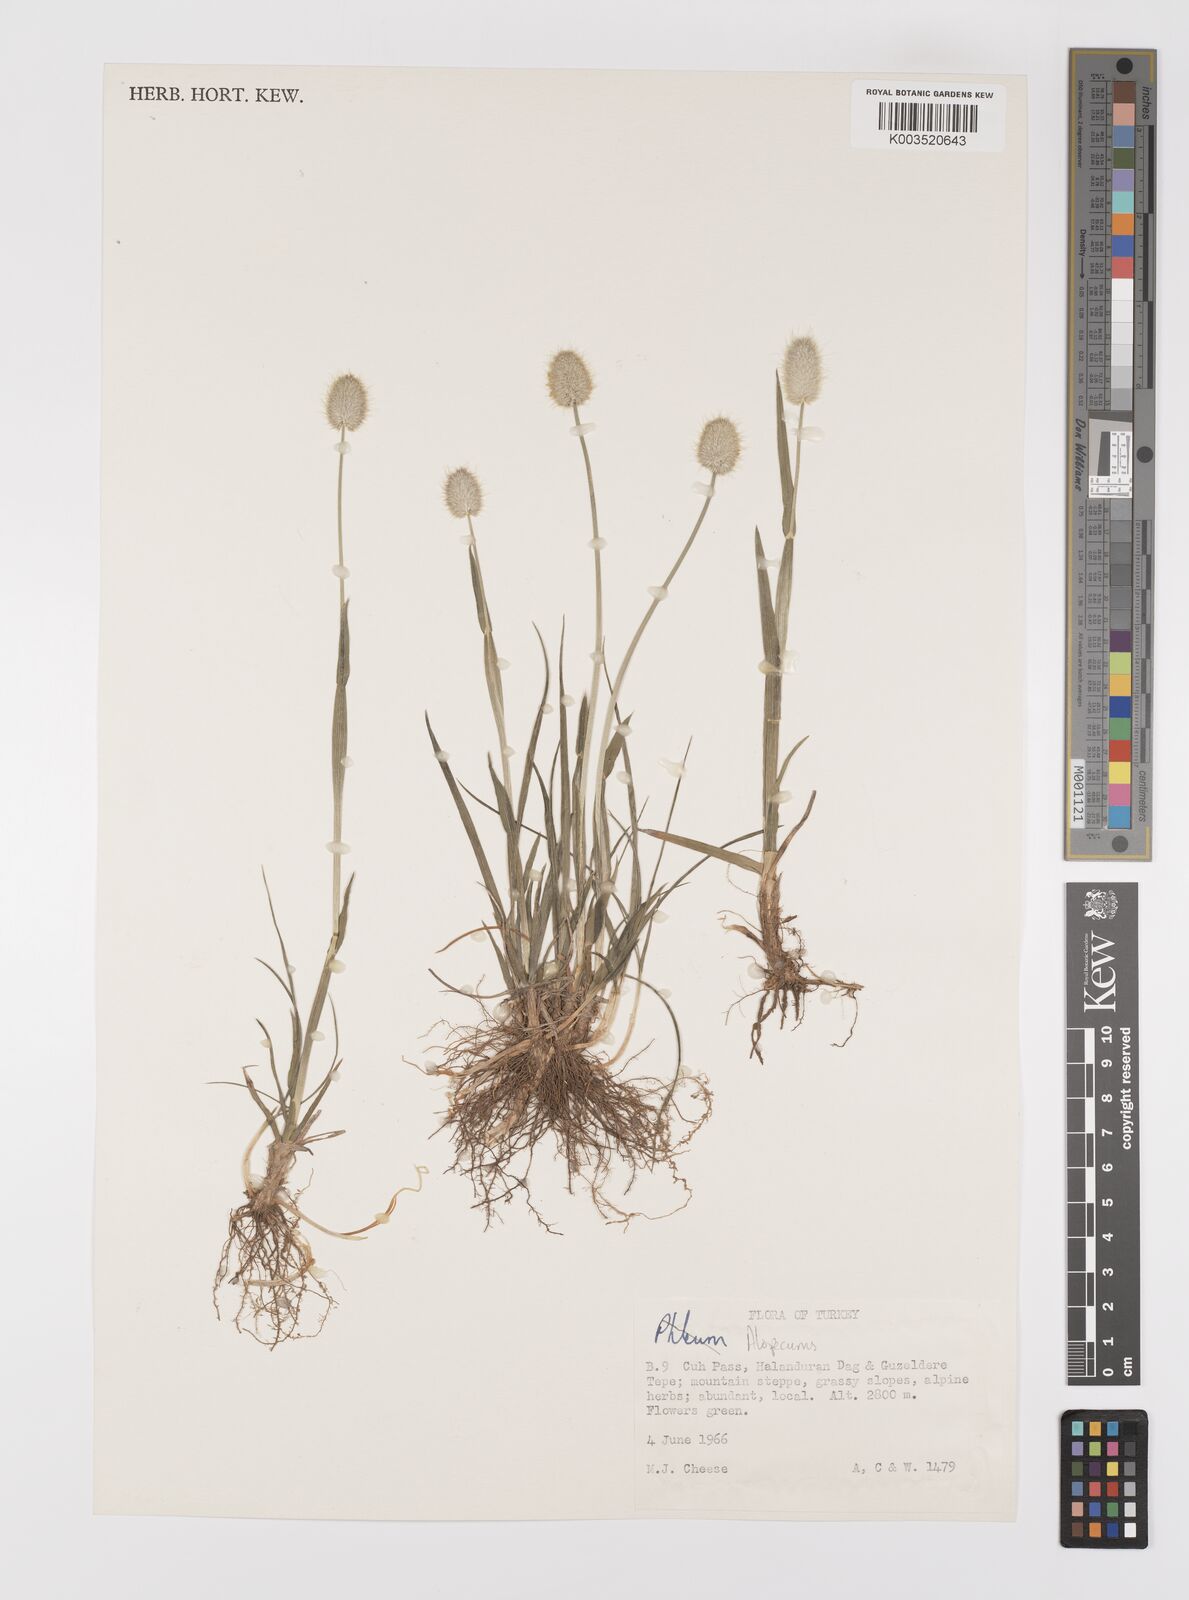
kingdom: Plantae
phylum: Tracheophyta
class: Liliopsida
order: Poales
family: Poaceae
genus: Alopecurus
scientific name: Alopecurus
